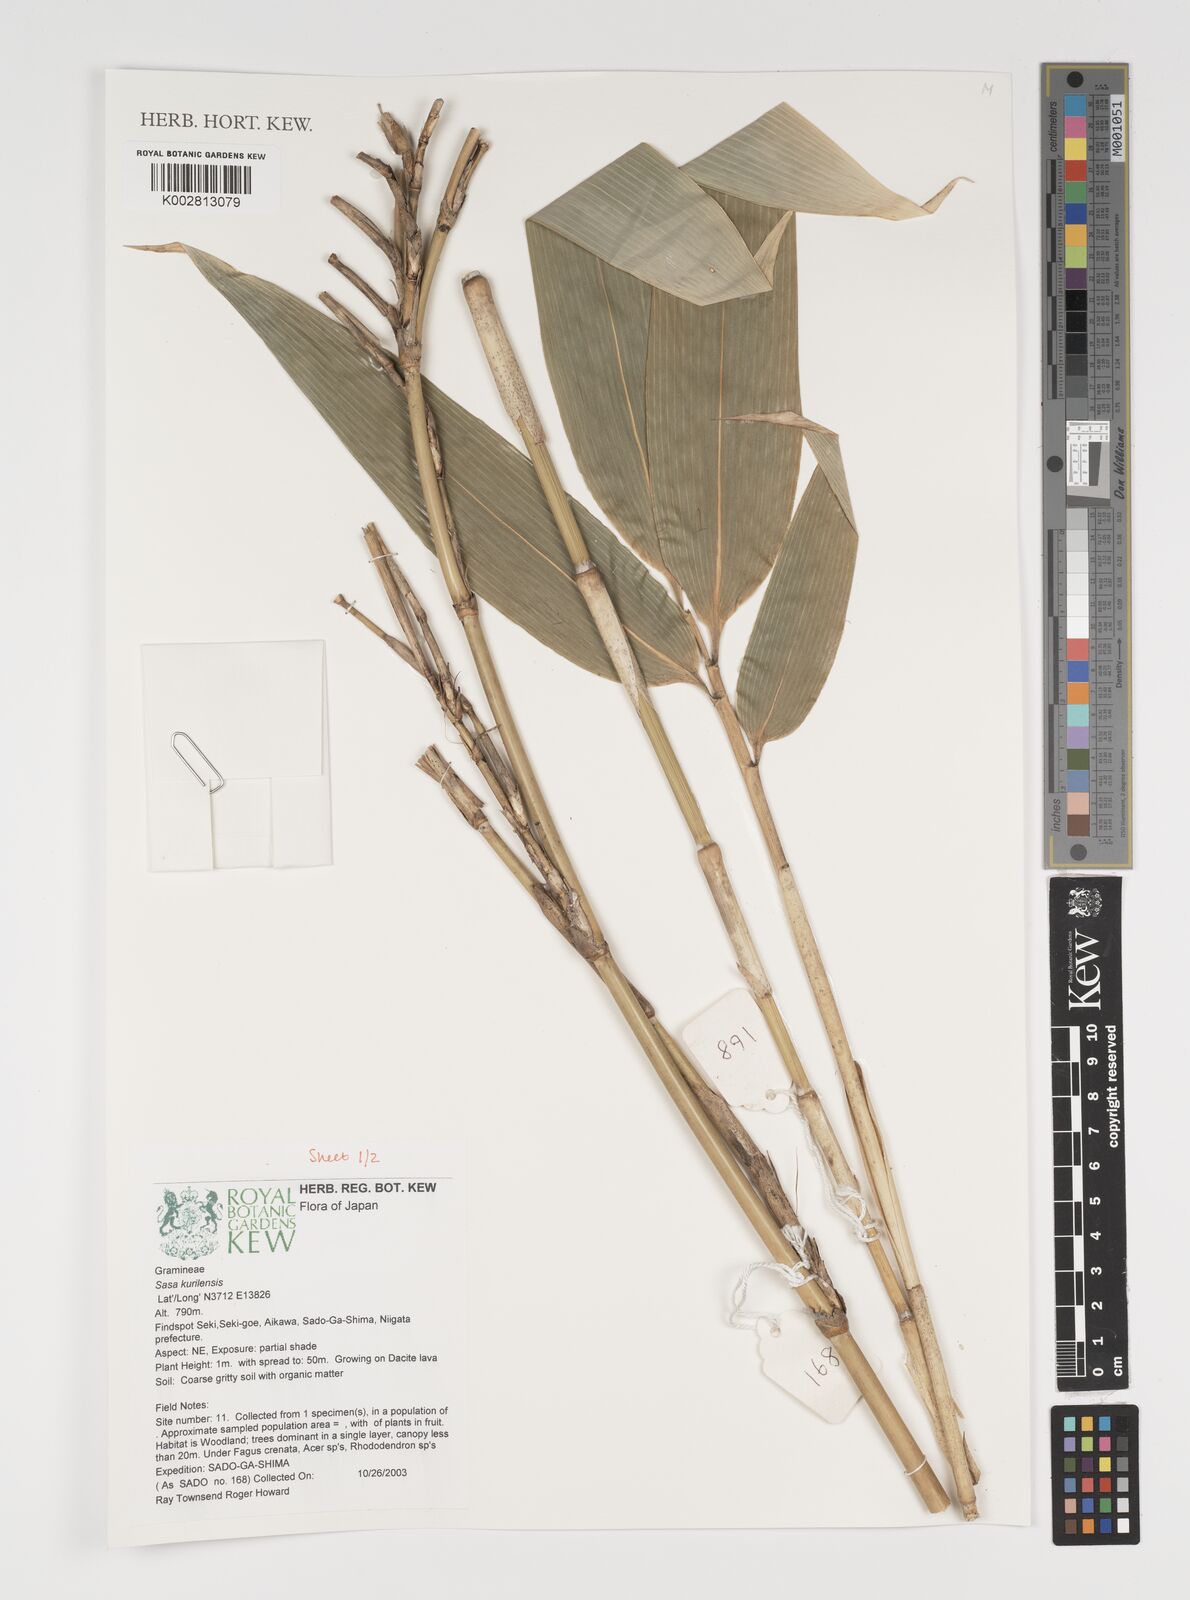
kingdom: Plantae
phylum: Tracheophyta
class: Liliopsida
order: Poales
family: Poaceae
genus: Sasa
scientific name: Sasa kurilensis
